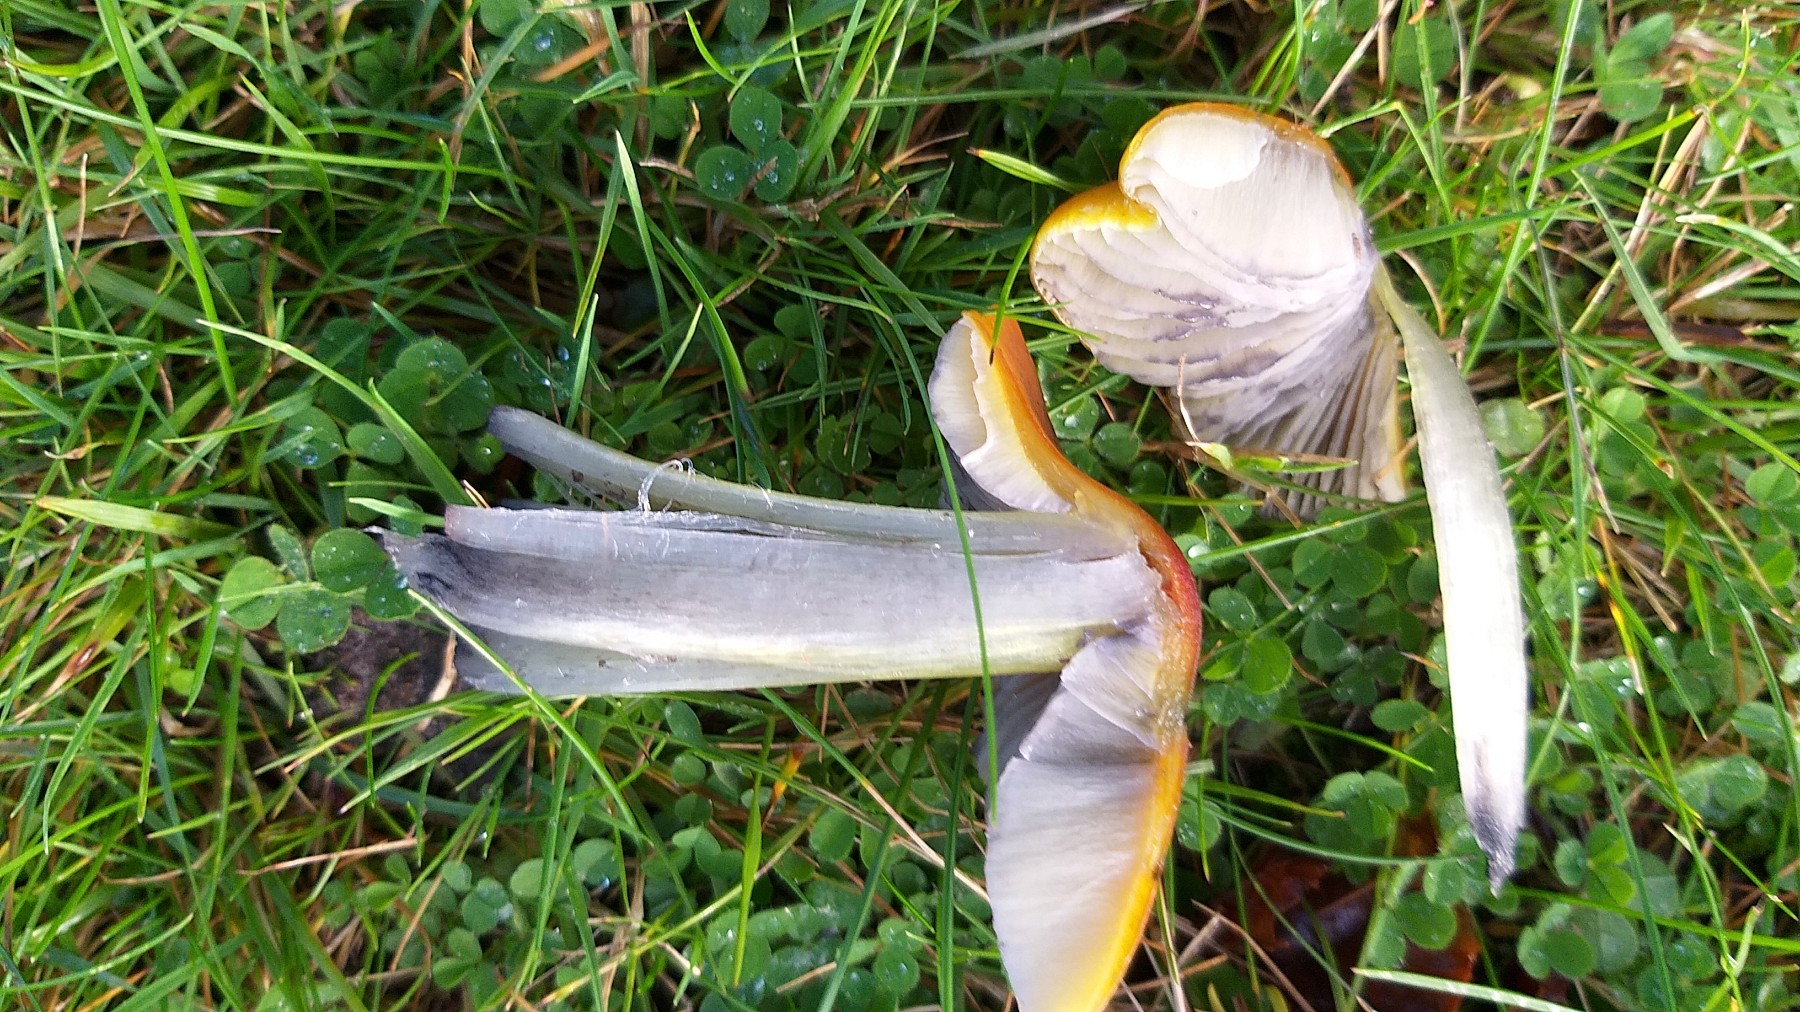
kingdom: Fungi
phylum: Basidiomycota
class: Agaricomycetes
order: Agaricales
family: Hygrophoraceae
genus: Hygrocybe
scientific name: Hygrocybe conica
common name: kegle-vokshat
